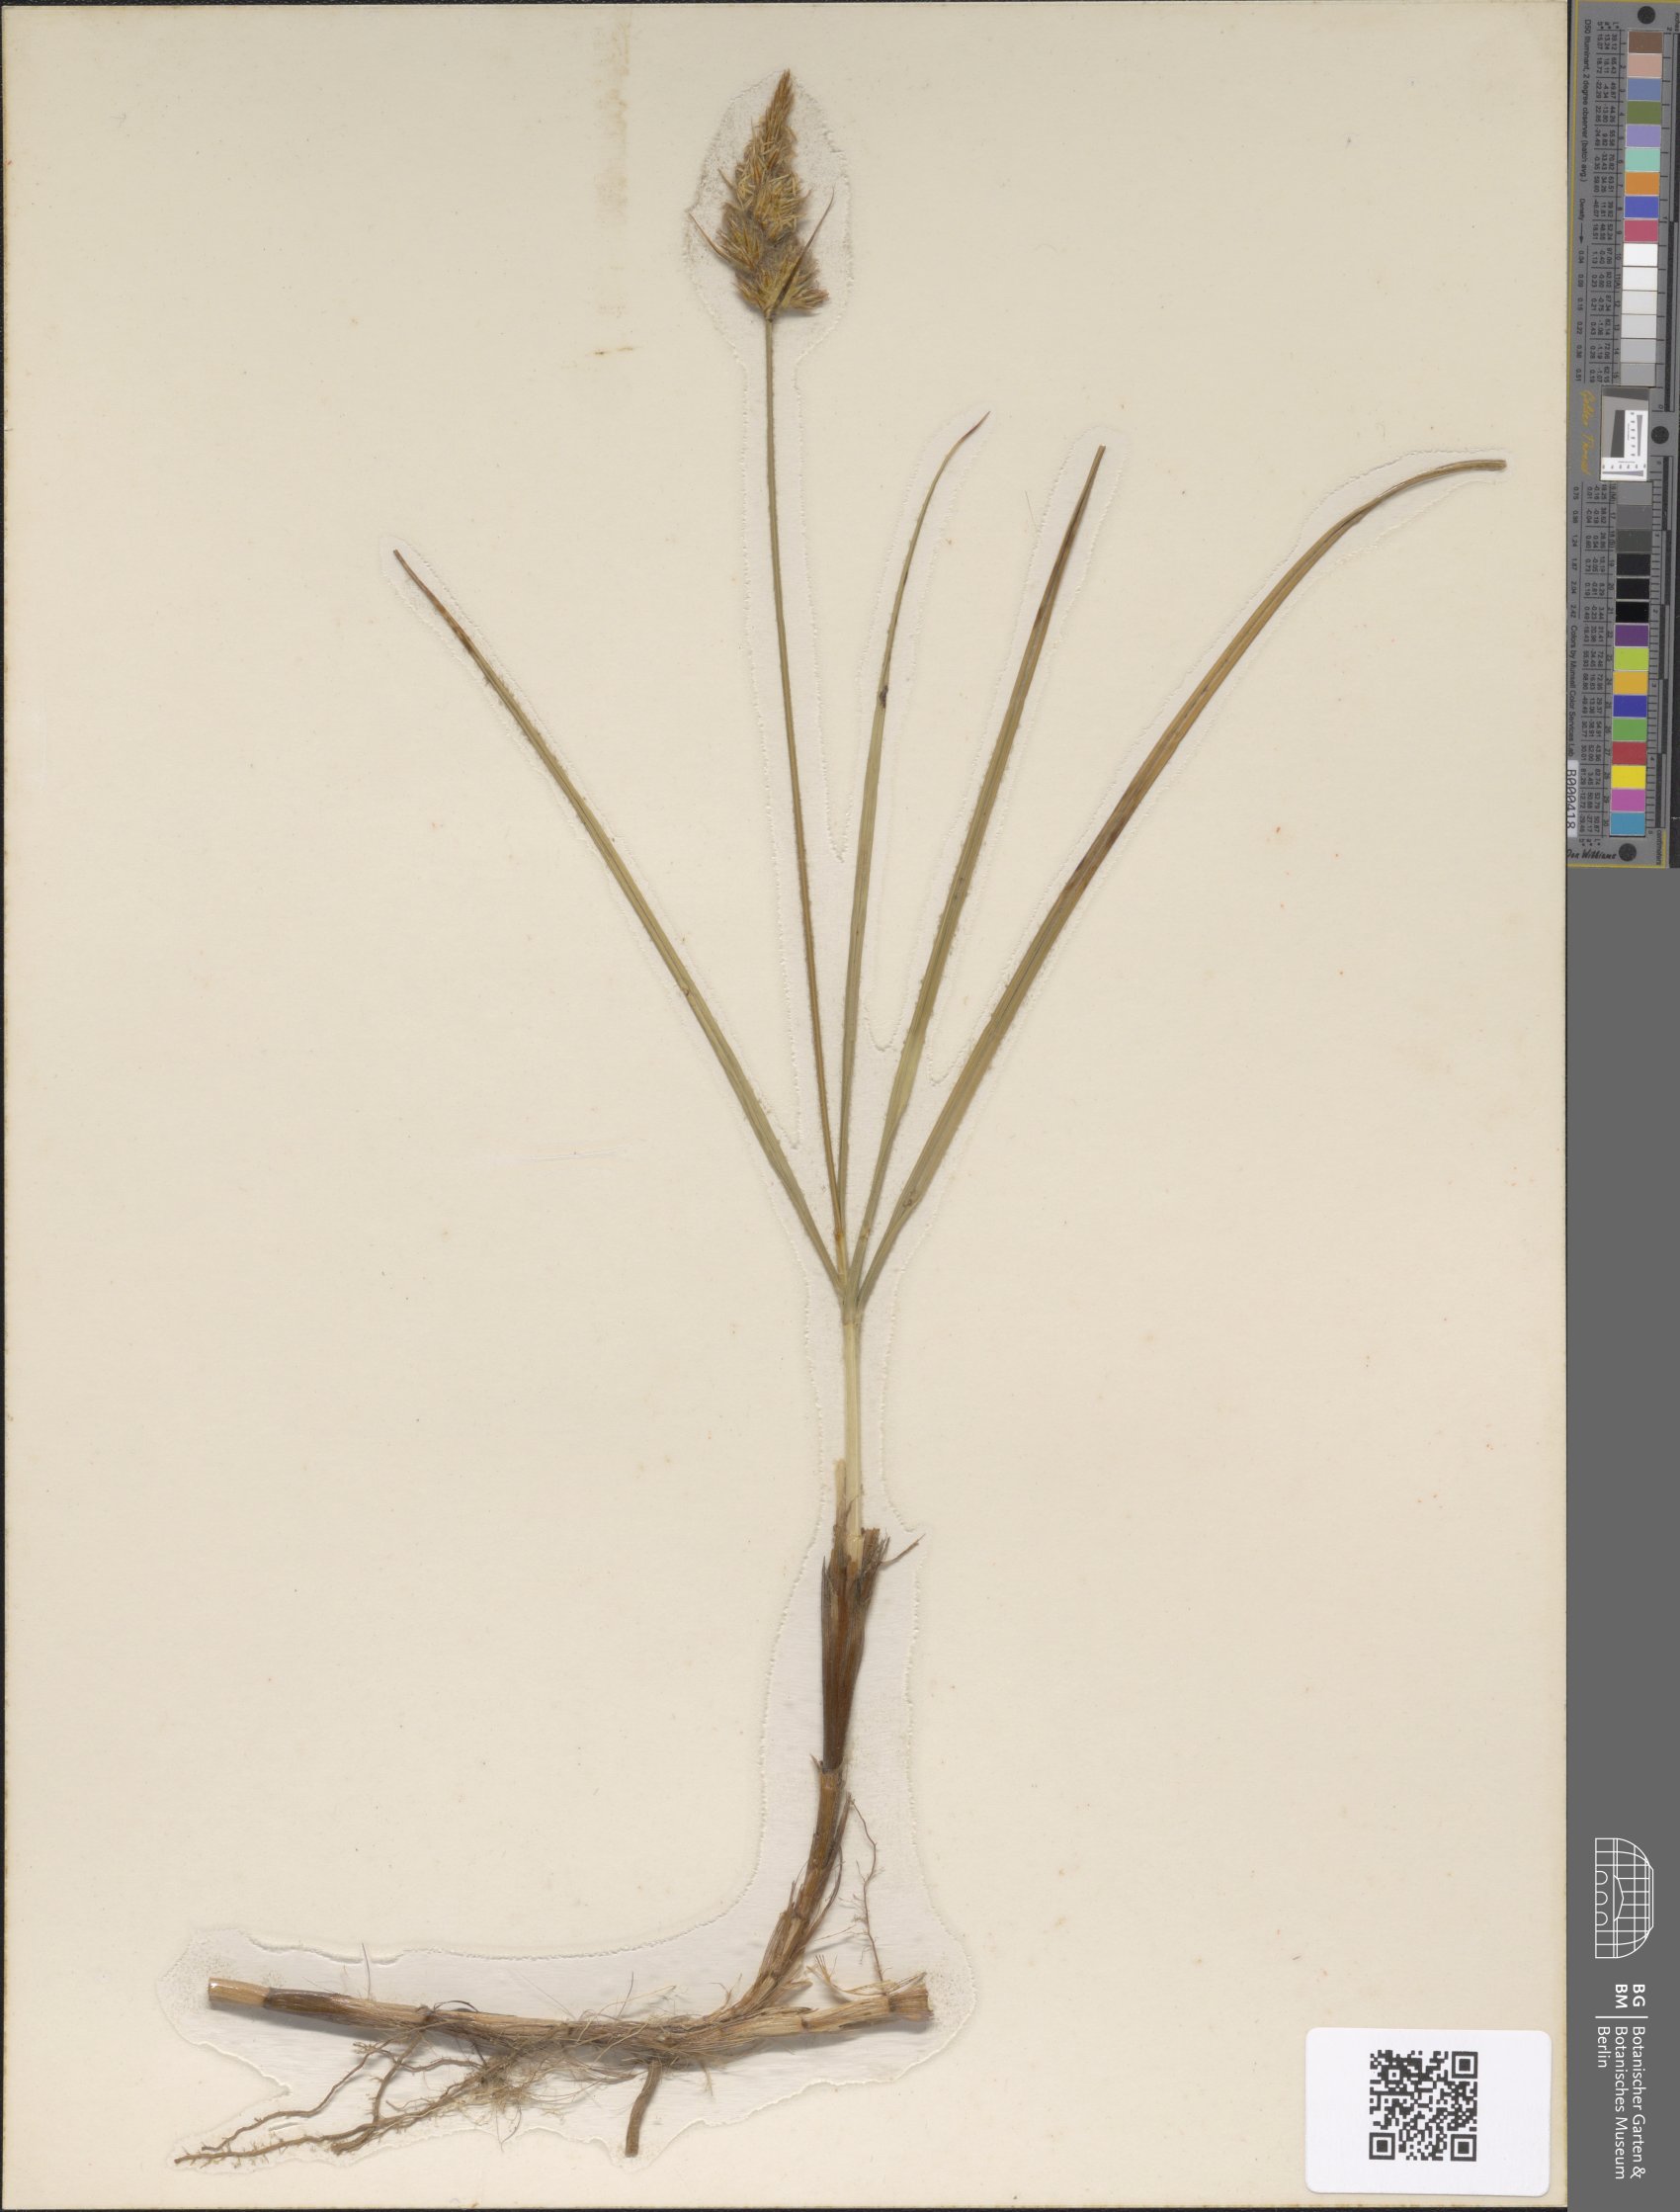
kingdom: Plantae
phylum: Tracheophyta
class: Liliopsida
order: Poales
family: Cyperaceae
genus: Carex
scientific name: Carex arenaria
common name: Sand sedge
